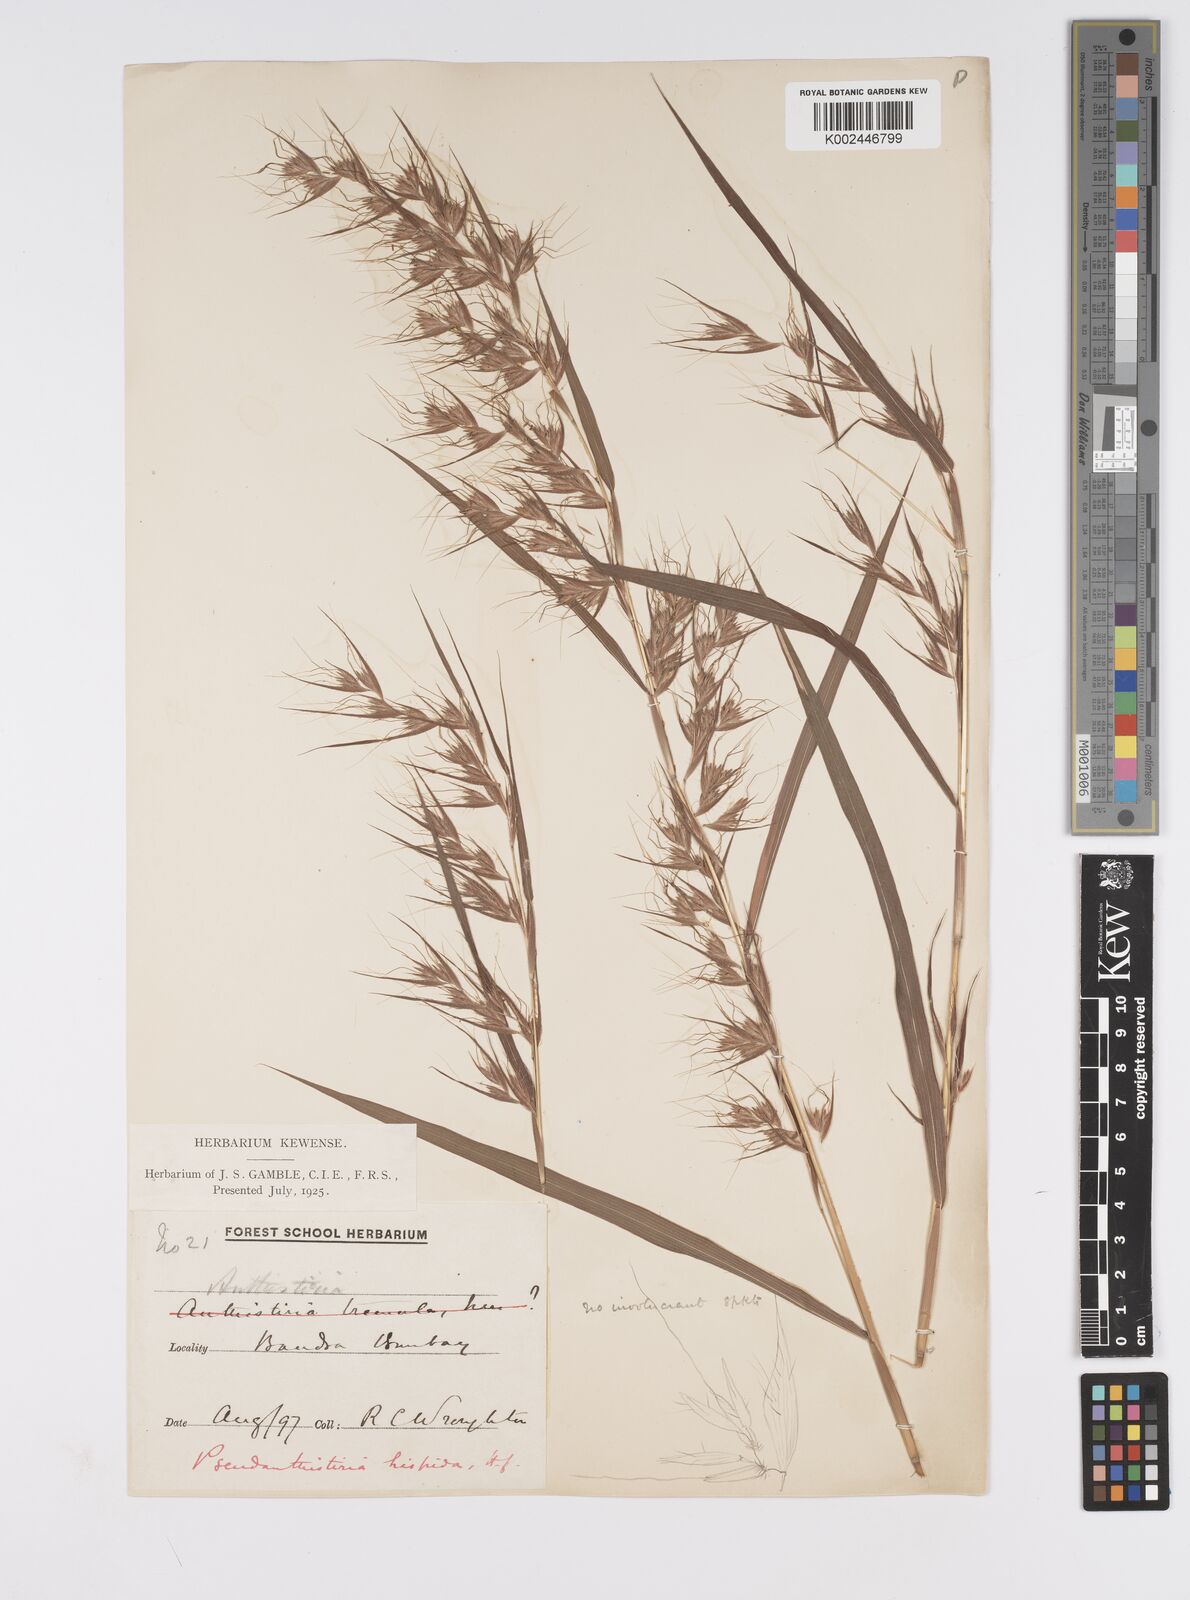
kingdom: Plantae
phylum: Tracheophyta
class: Liliopsida
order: Poales
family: Poaceae
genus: Pseudanthistiria
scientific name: Pseudanthistiria heteroclita
